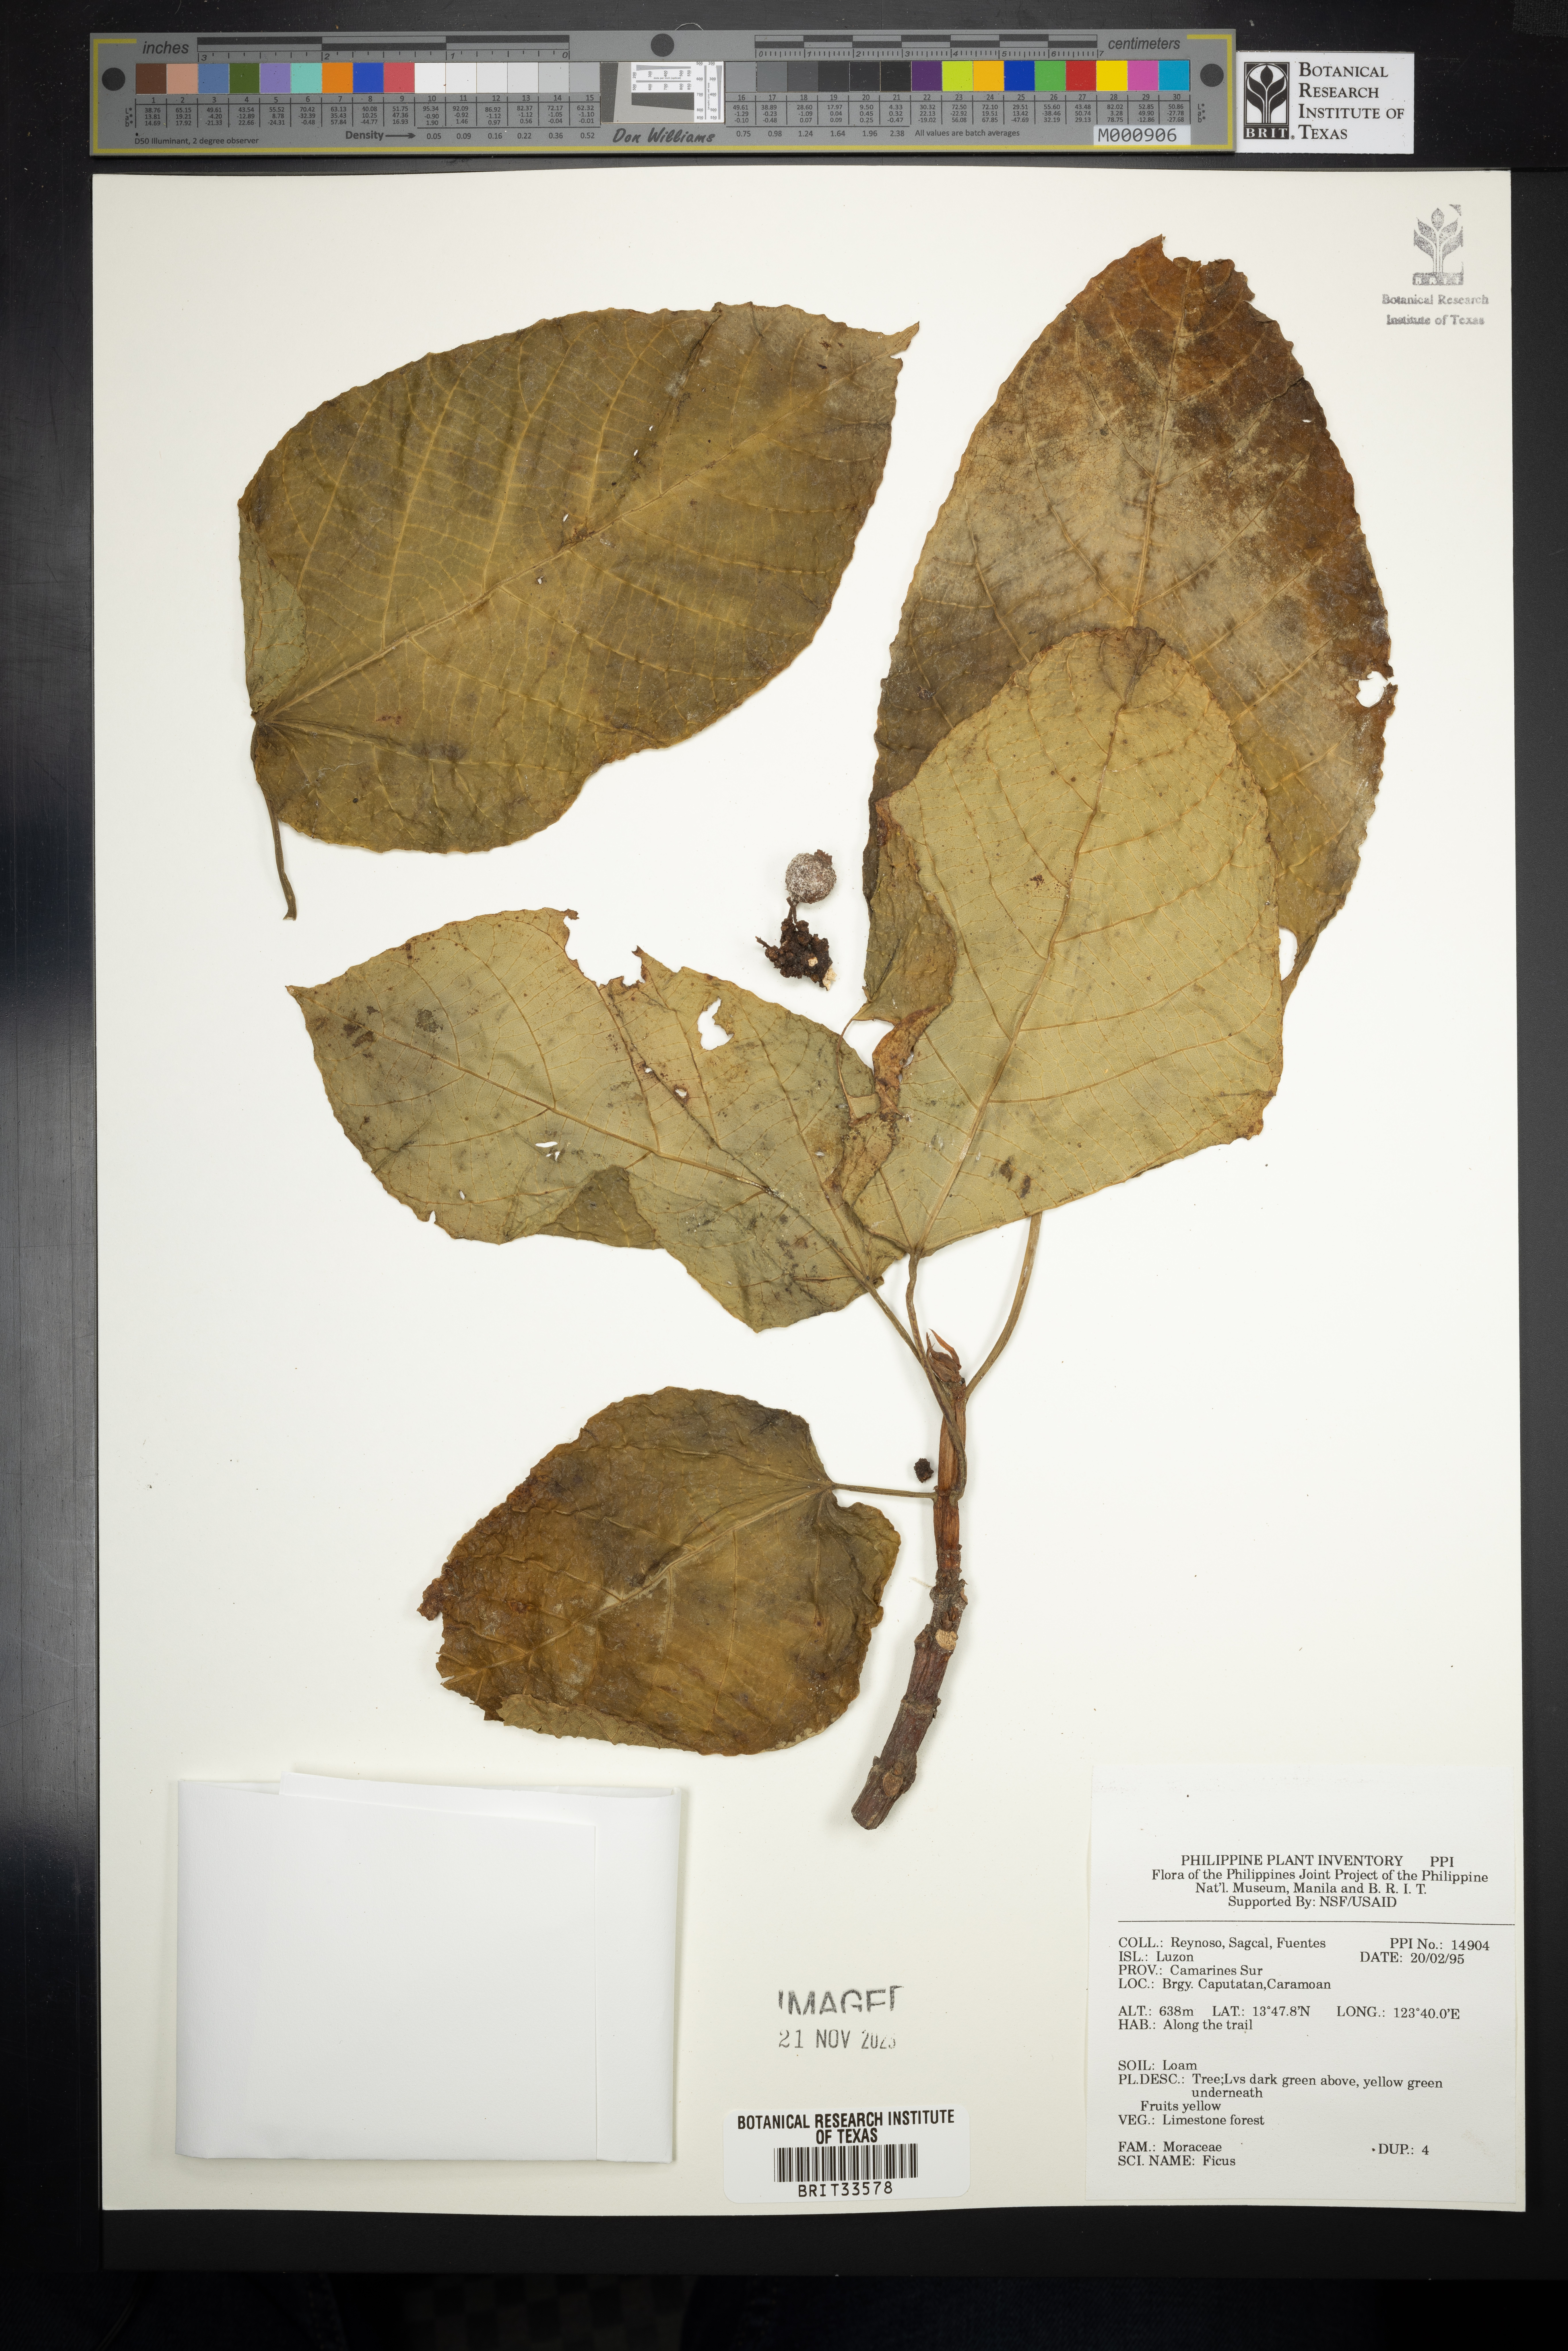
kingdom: Plantae
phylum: Tracheophyta
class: Magnoliopsida
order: Rosales
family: Moraceae
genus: Ficus
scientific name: Ficus
